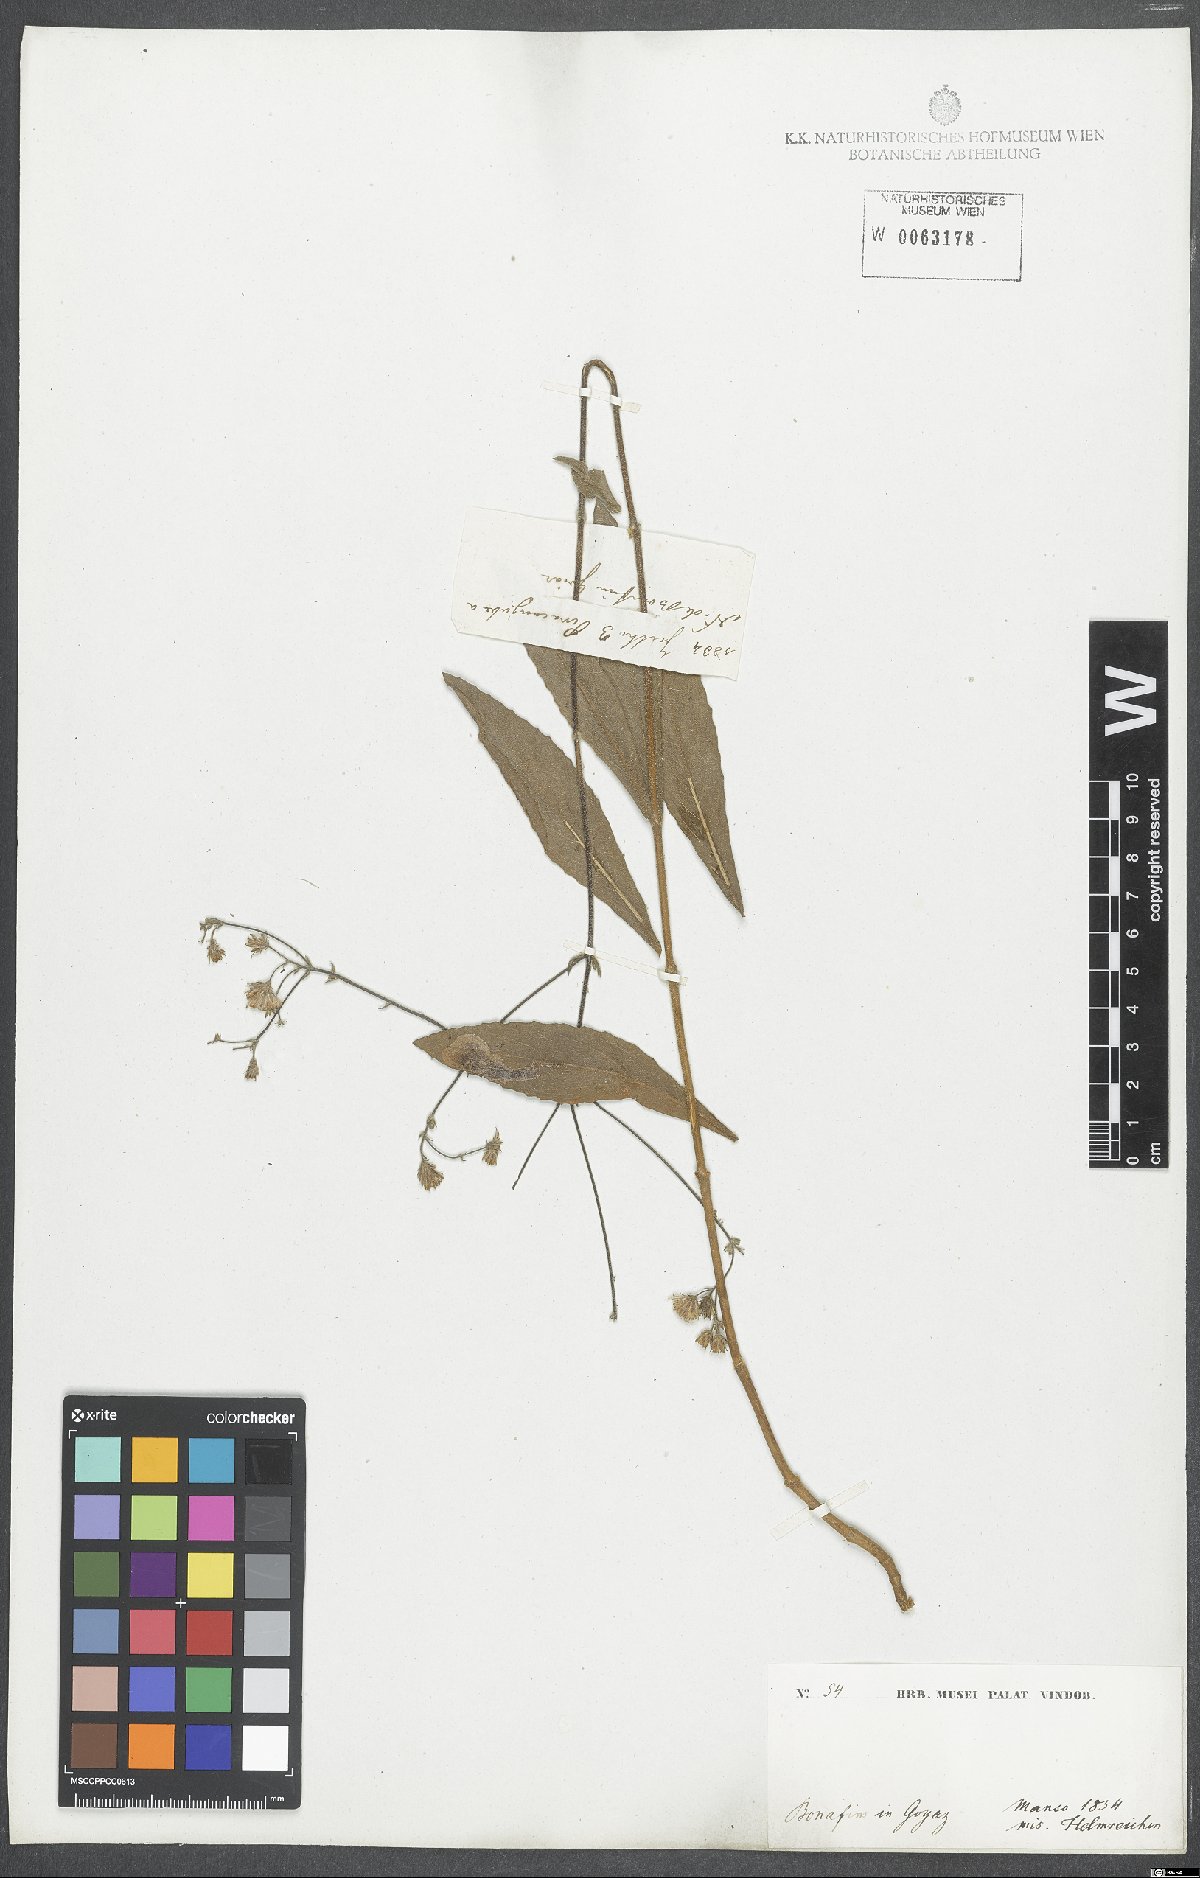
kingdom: Plantae
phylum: Tracheophyta
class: Magnoliopsida
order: Asterales
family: Asteraceae
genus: Eupatorium
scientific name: Eupatorium
